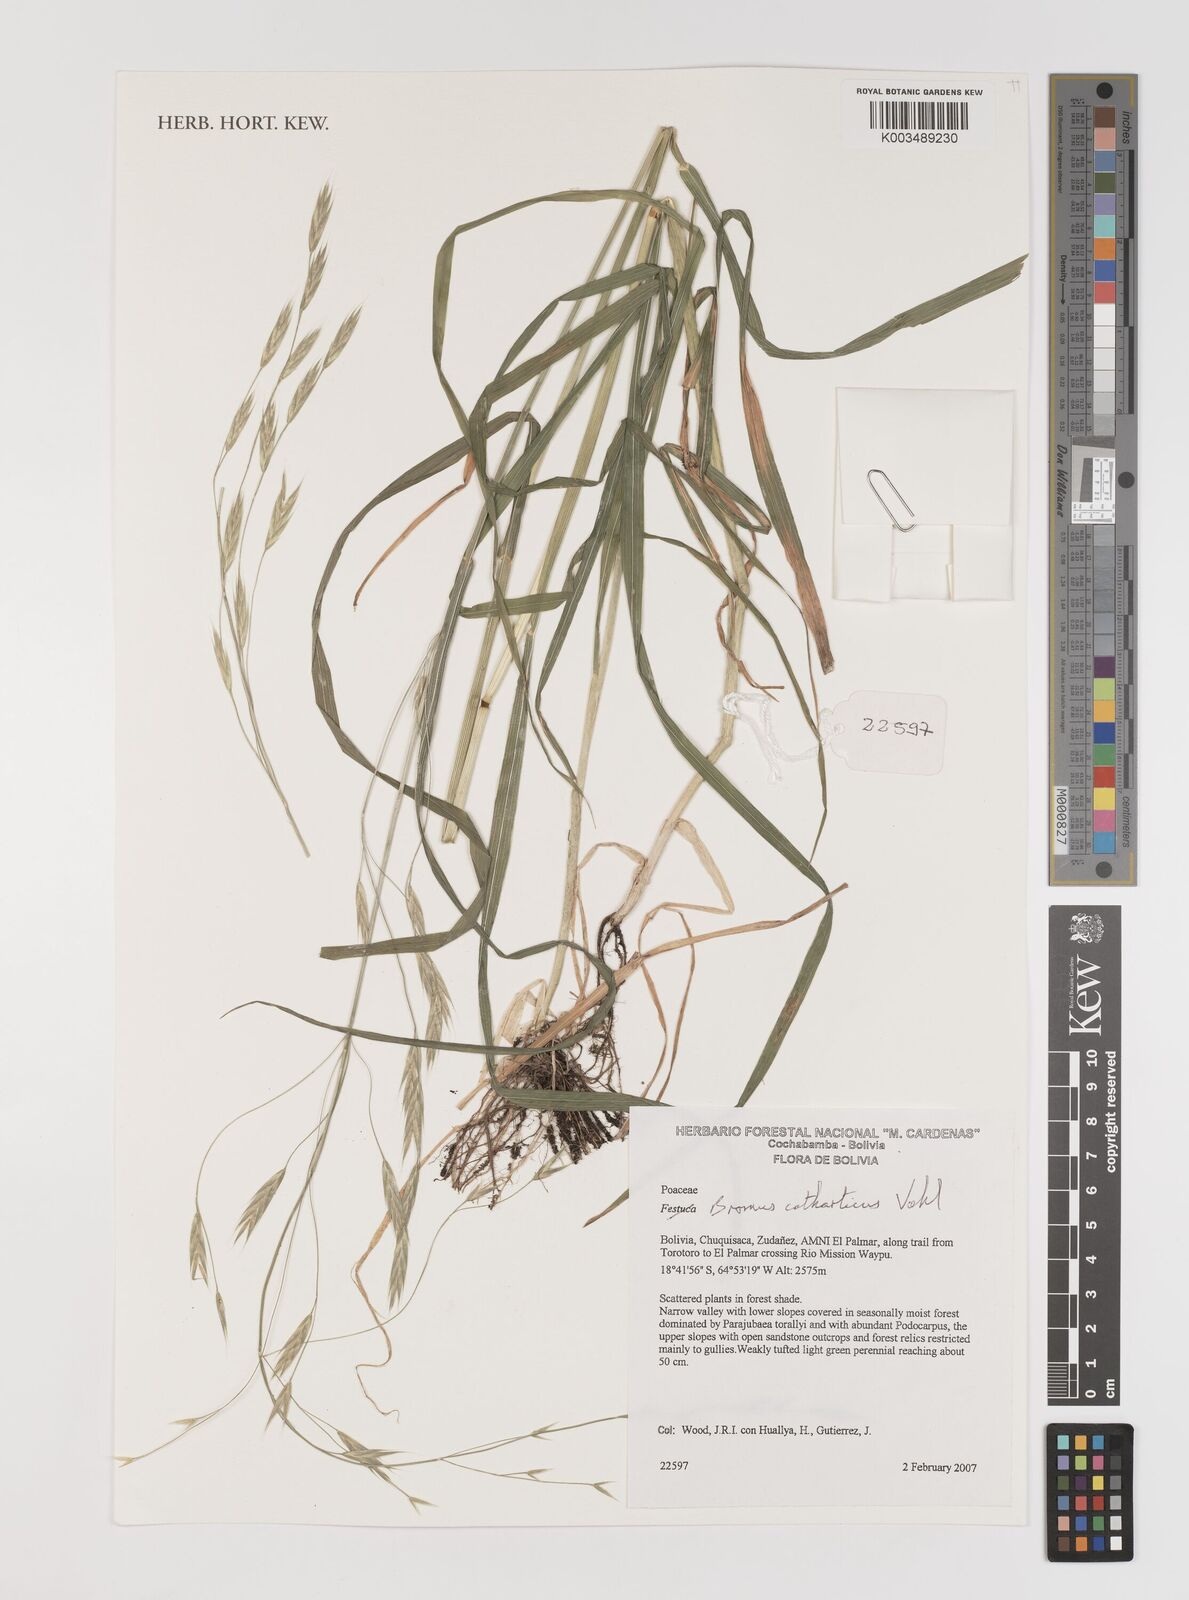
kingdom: Plantae
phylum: Tracheophyta
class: Liliopsida
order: Poales
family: Poaceae
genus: Bromus
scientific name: Bromus catharticus
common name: Rescuegrass
